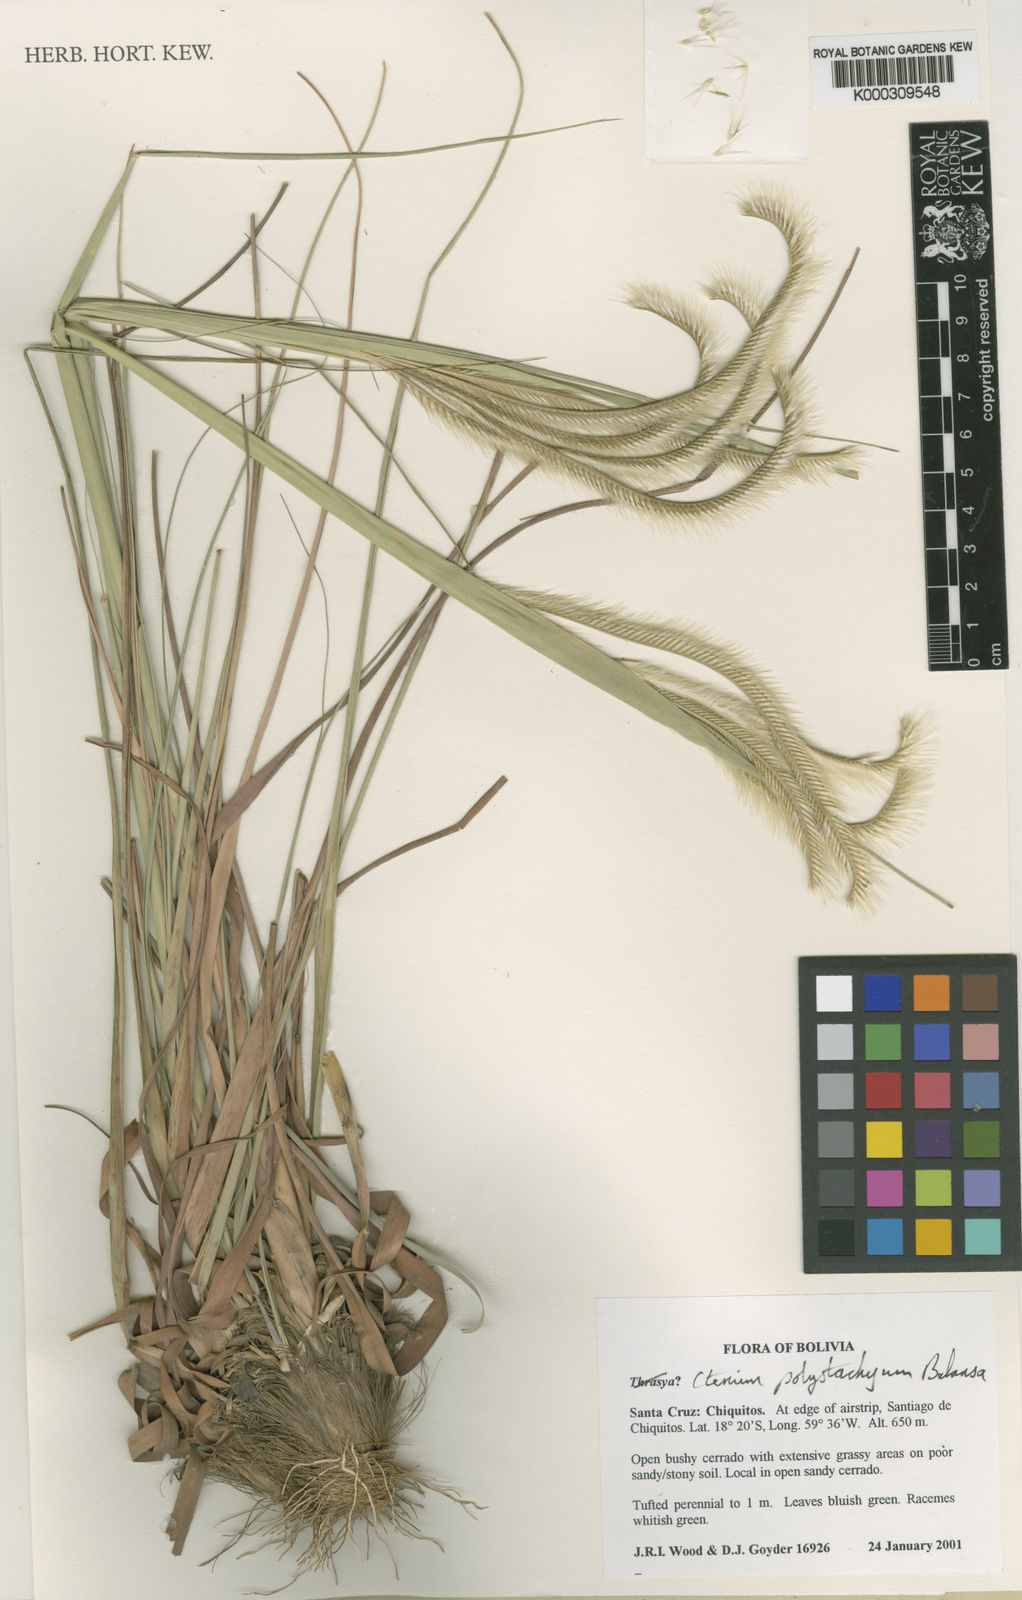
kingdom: Plantae
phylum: Tracheophyta
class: Liliopsida
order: Poales
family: Poaceae
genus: Ctenium
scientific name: Ctenium polystachyum
